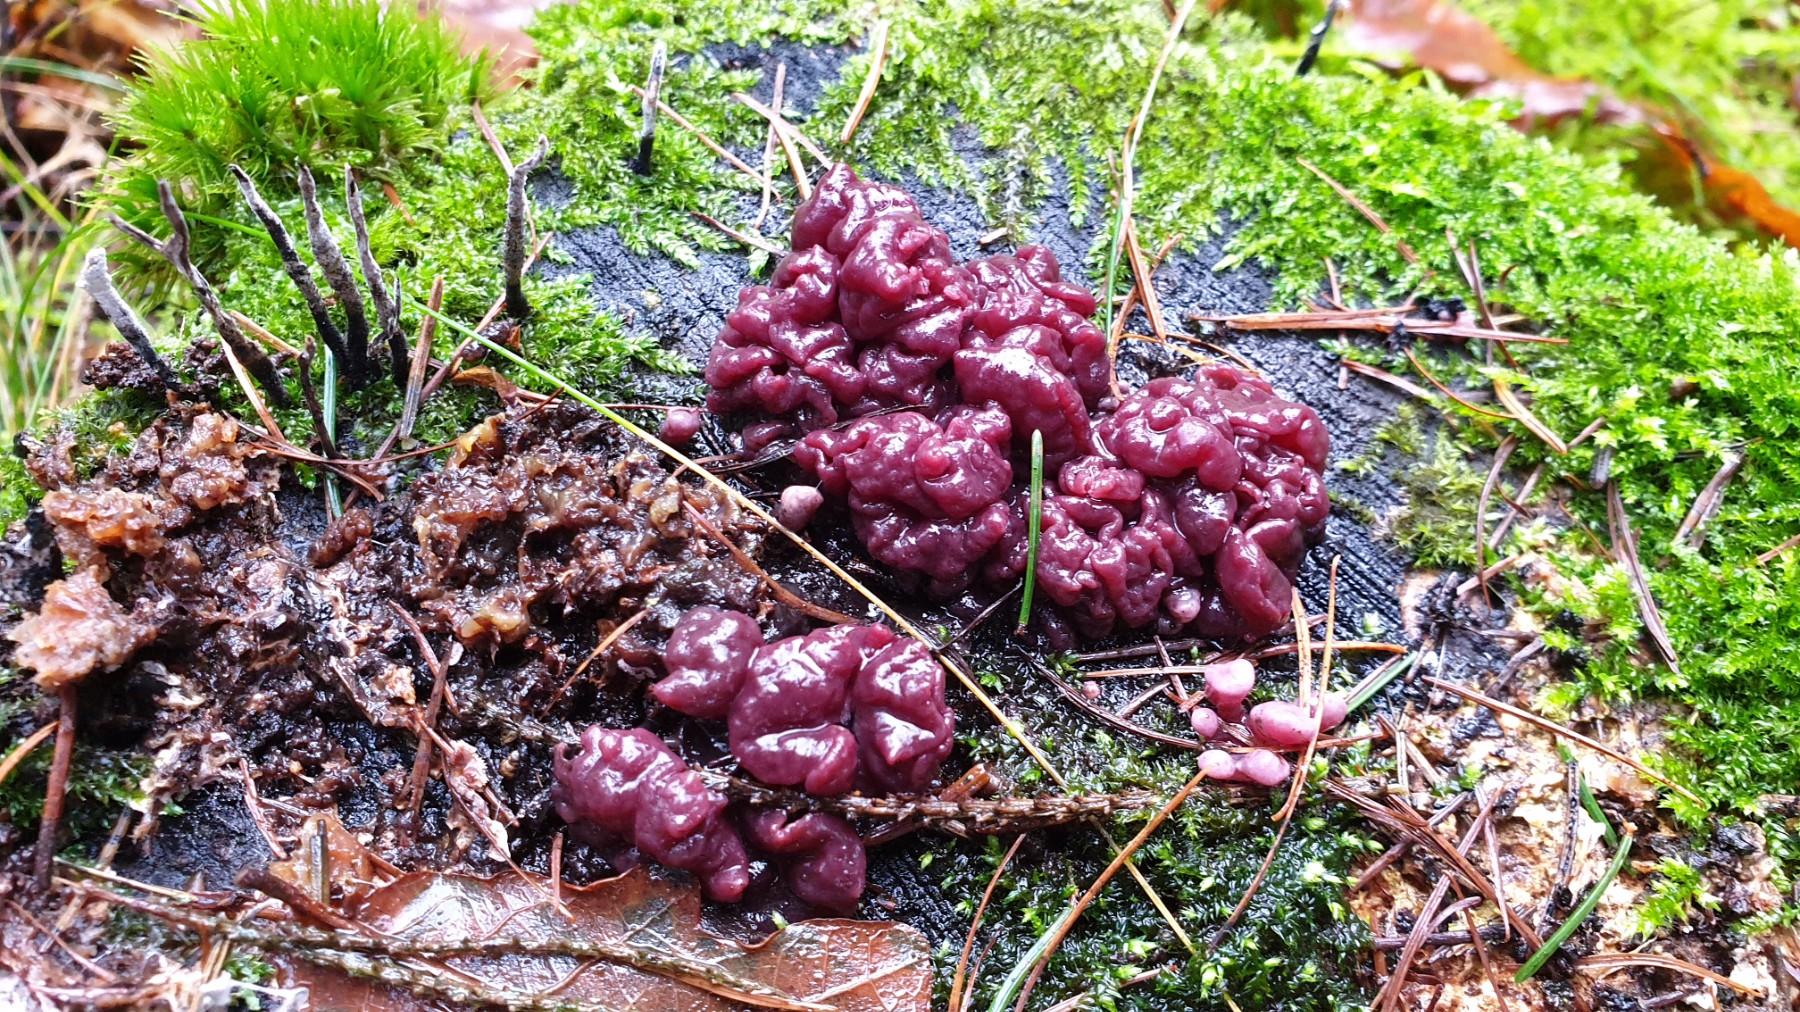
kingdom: Fungi
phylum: Ascomycota
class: Leotiomycetes
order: Helotiales
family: Gelatinodiscaceae
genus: Ascocoryne
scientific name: Ascocoryne sarcoides
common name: rødlilla sejskive
